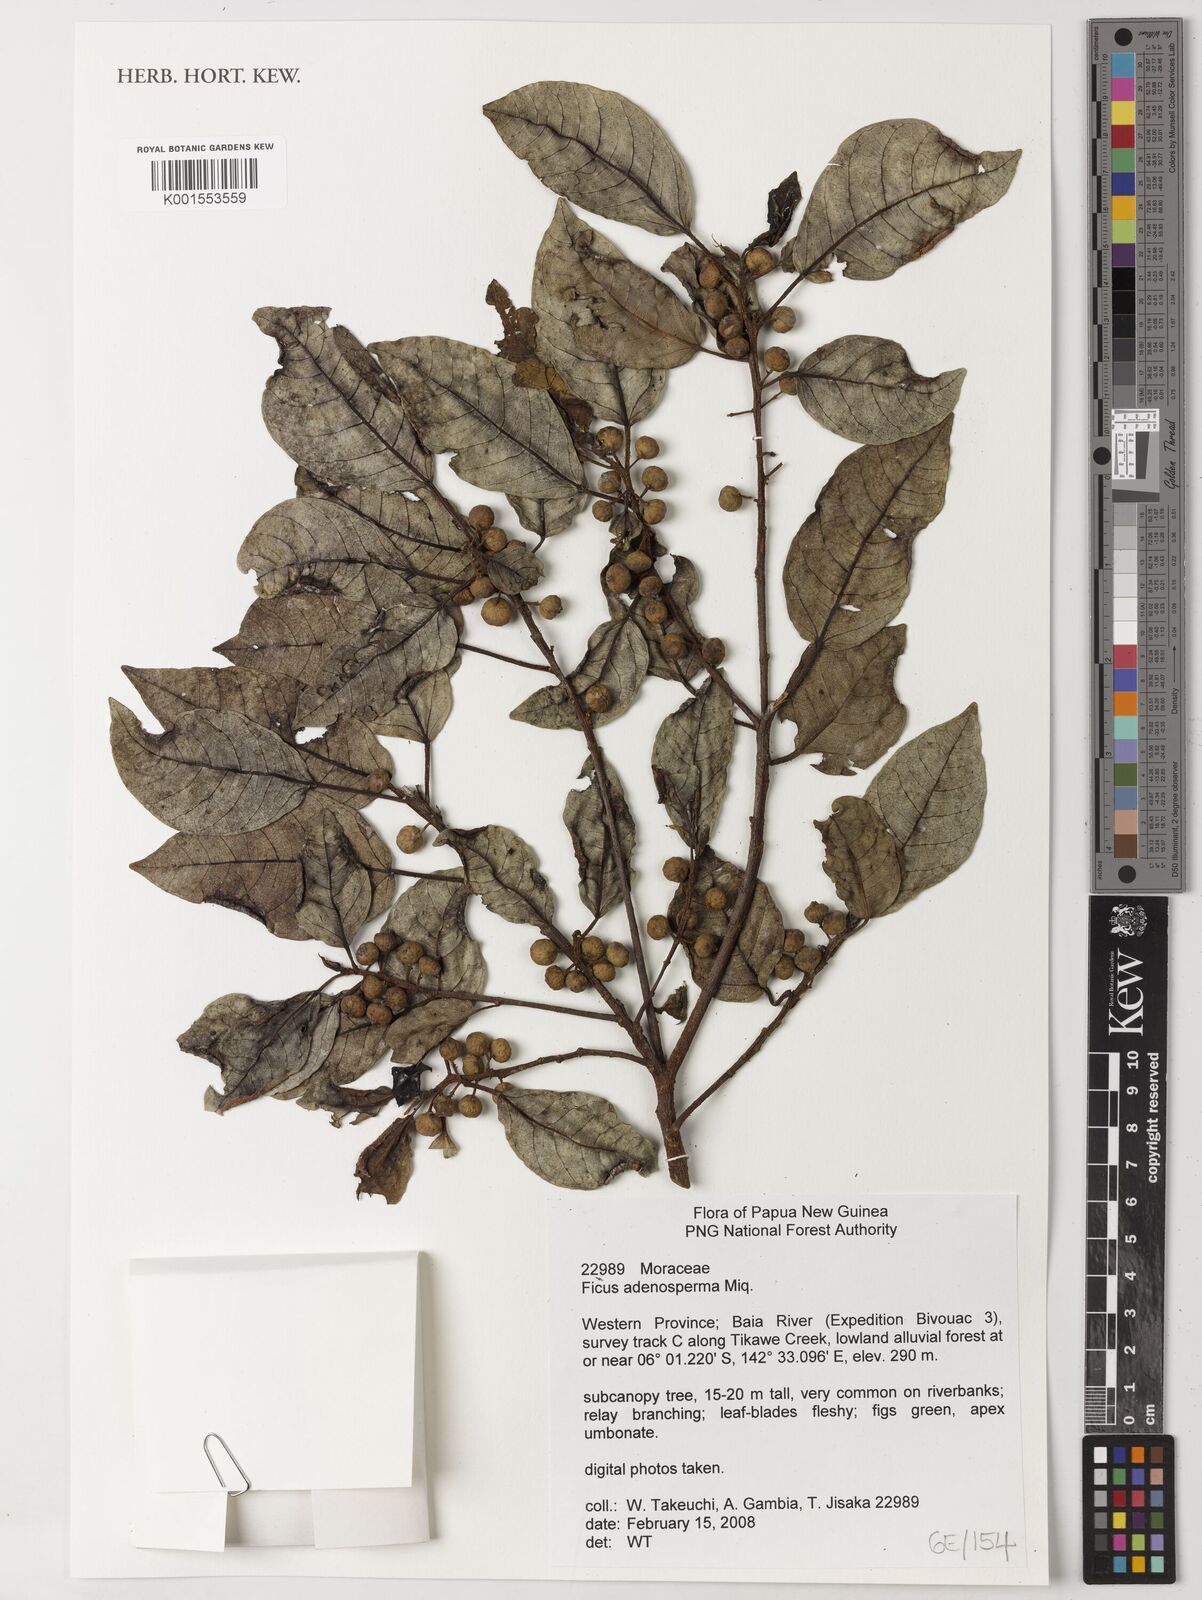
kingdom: Plantae
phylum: Tracheophyta
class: Magnoliopsida
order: Rosales
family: Moraceae
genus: Ficus
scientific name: Ficus adenosperma
